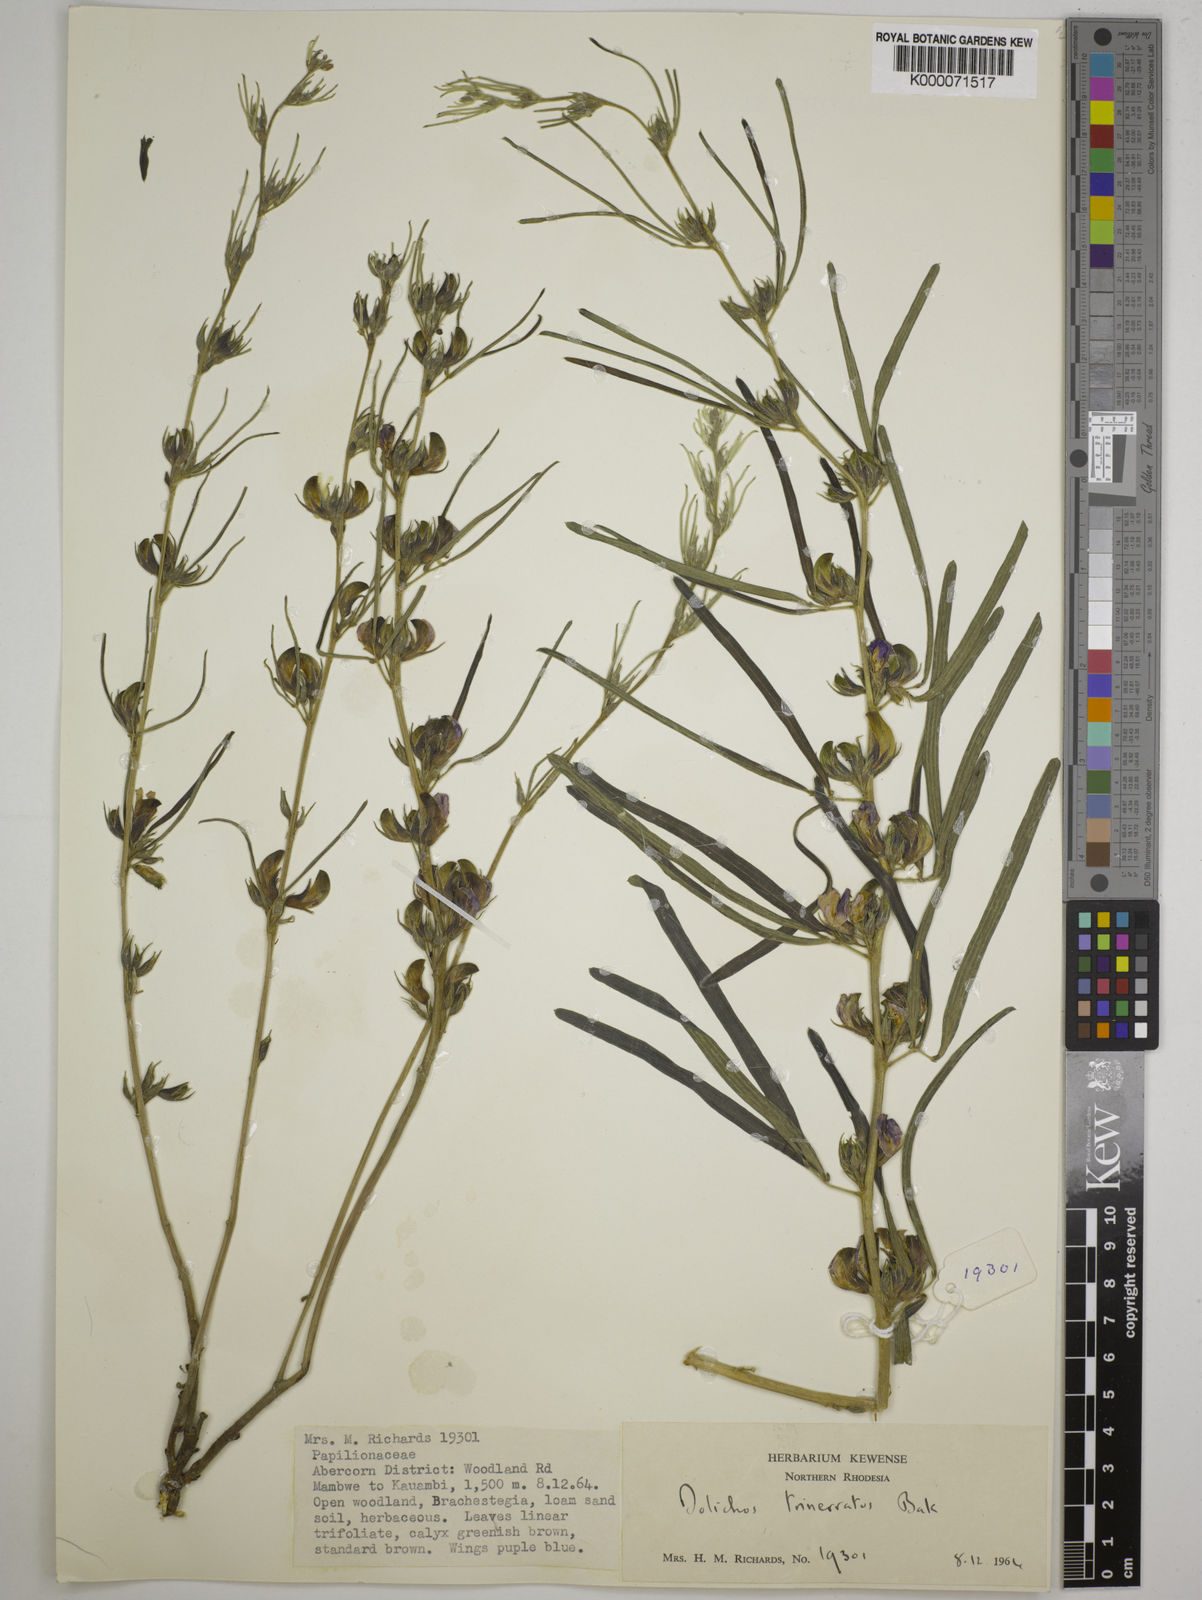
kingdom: Plantae
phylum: Tracheophyta
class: Magnoliopsida
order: Fabales
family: Fabaceae
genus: Dolichos
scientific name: Dolichos trinervatus
